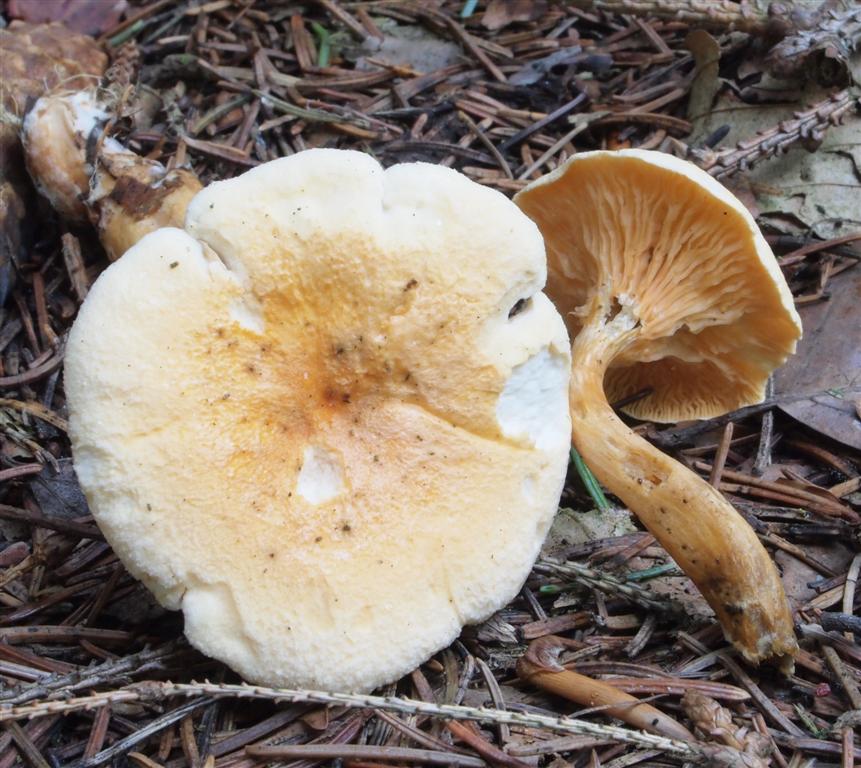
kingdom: Fungi
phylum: Basidiomycota
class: Agaricomycetes
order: Boletales
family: Hygrophoropsidaceae
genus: Hygrophoropsis
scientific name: Hygrophoropsis aurantiaca
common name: almindelig orangekantarel
